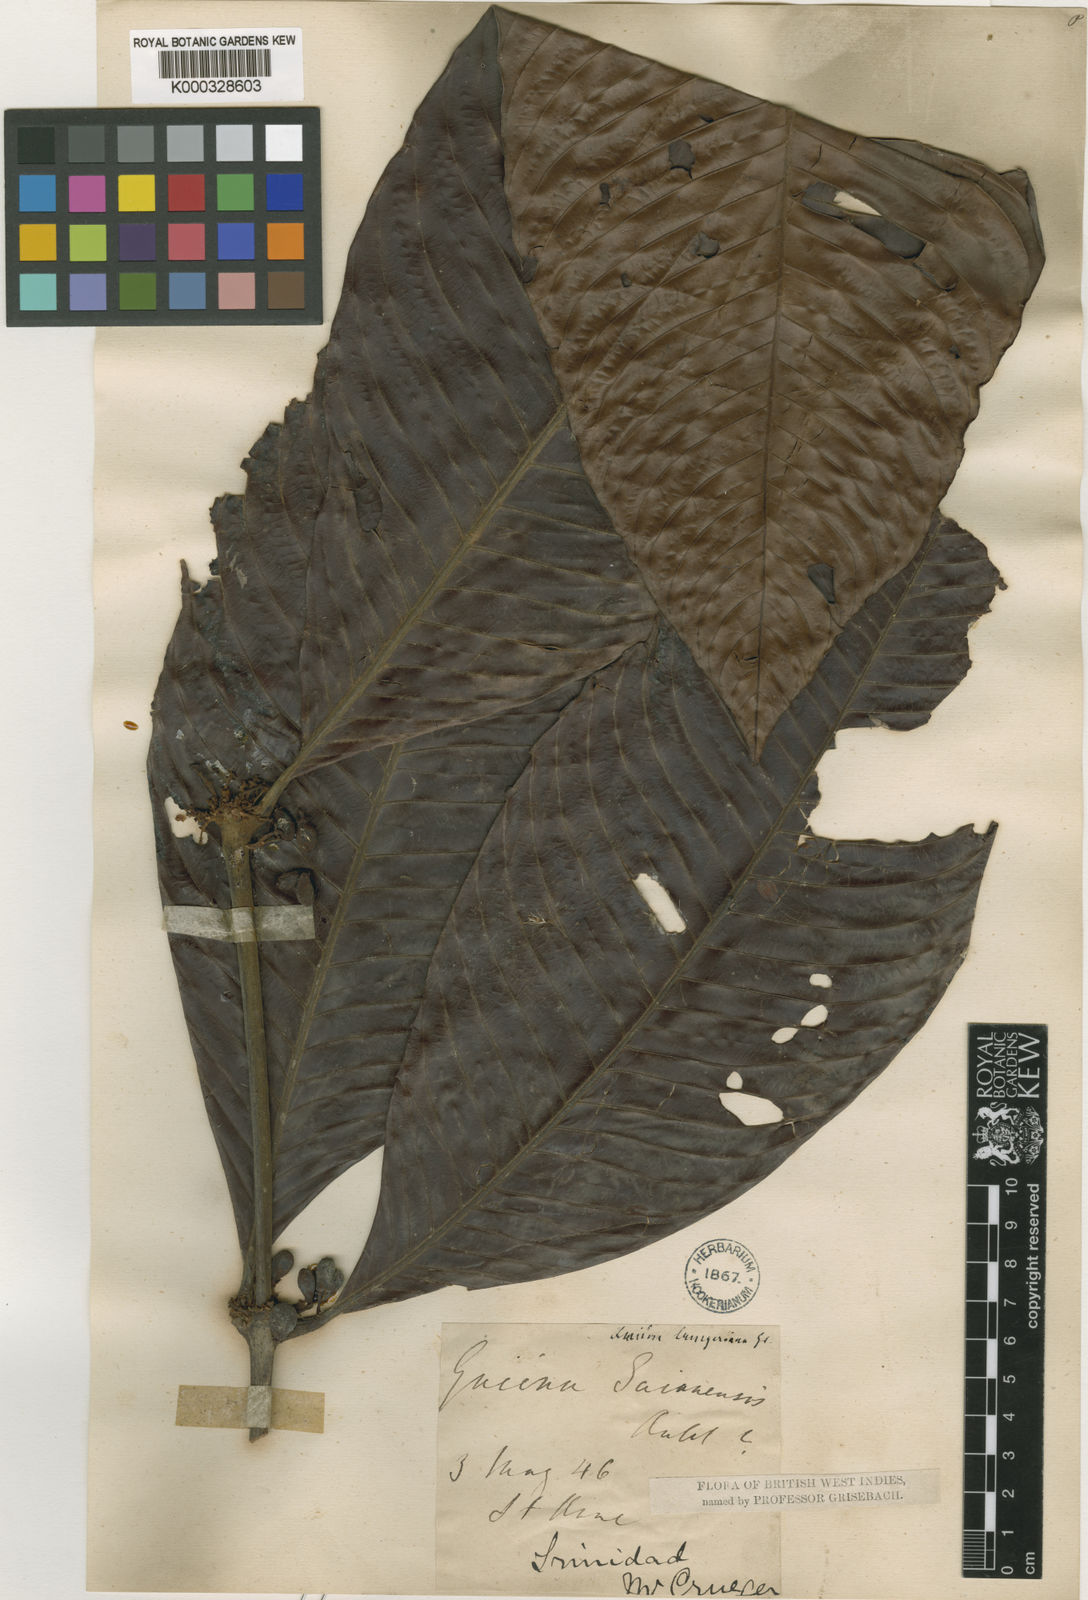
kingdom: Plantae
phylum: Tracheophyta
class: Magnoliopsida
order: Malpighiales
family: Quiinaceae
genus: Quiina
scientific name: Quiina cruegeriana
